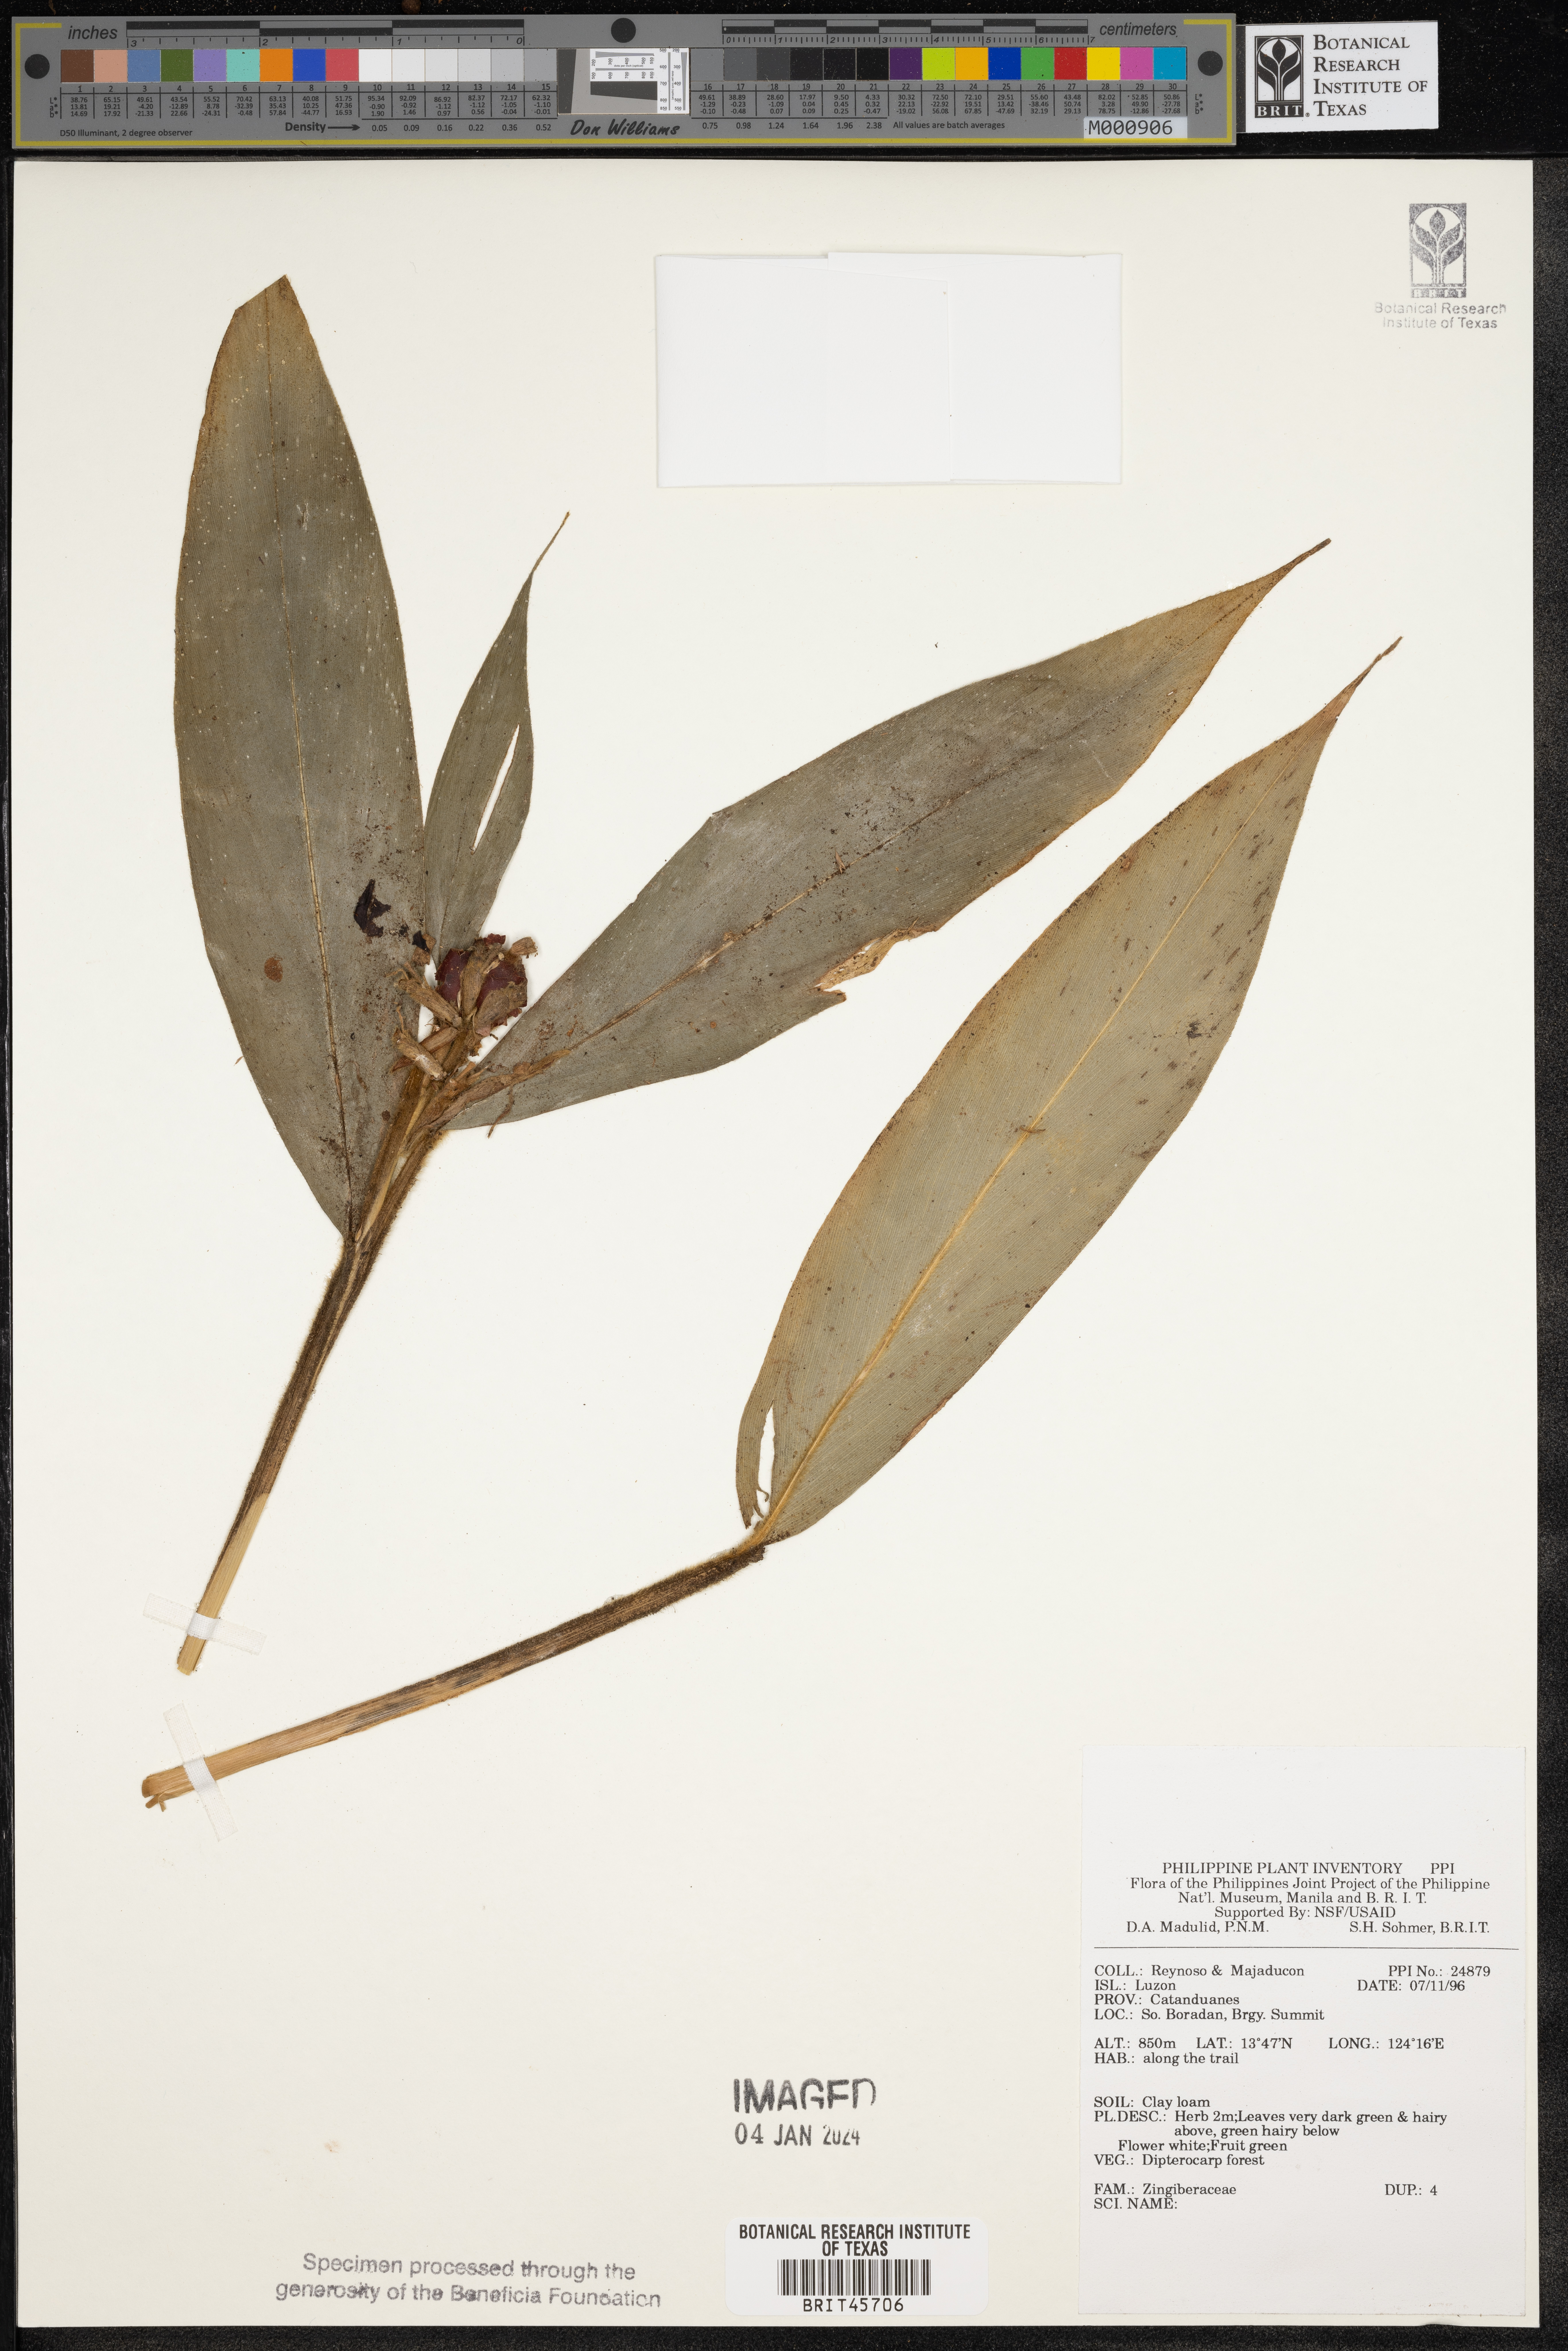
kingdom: Plantae
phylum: Tracheophyta
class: Liliopsida
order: Zingiberales
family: Zingiberaceae
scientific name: Zingiberaceae
